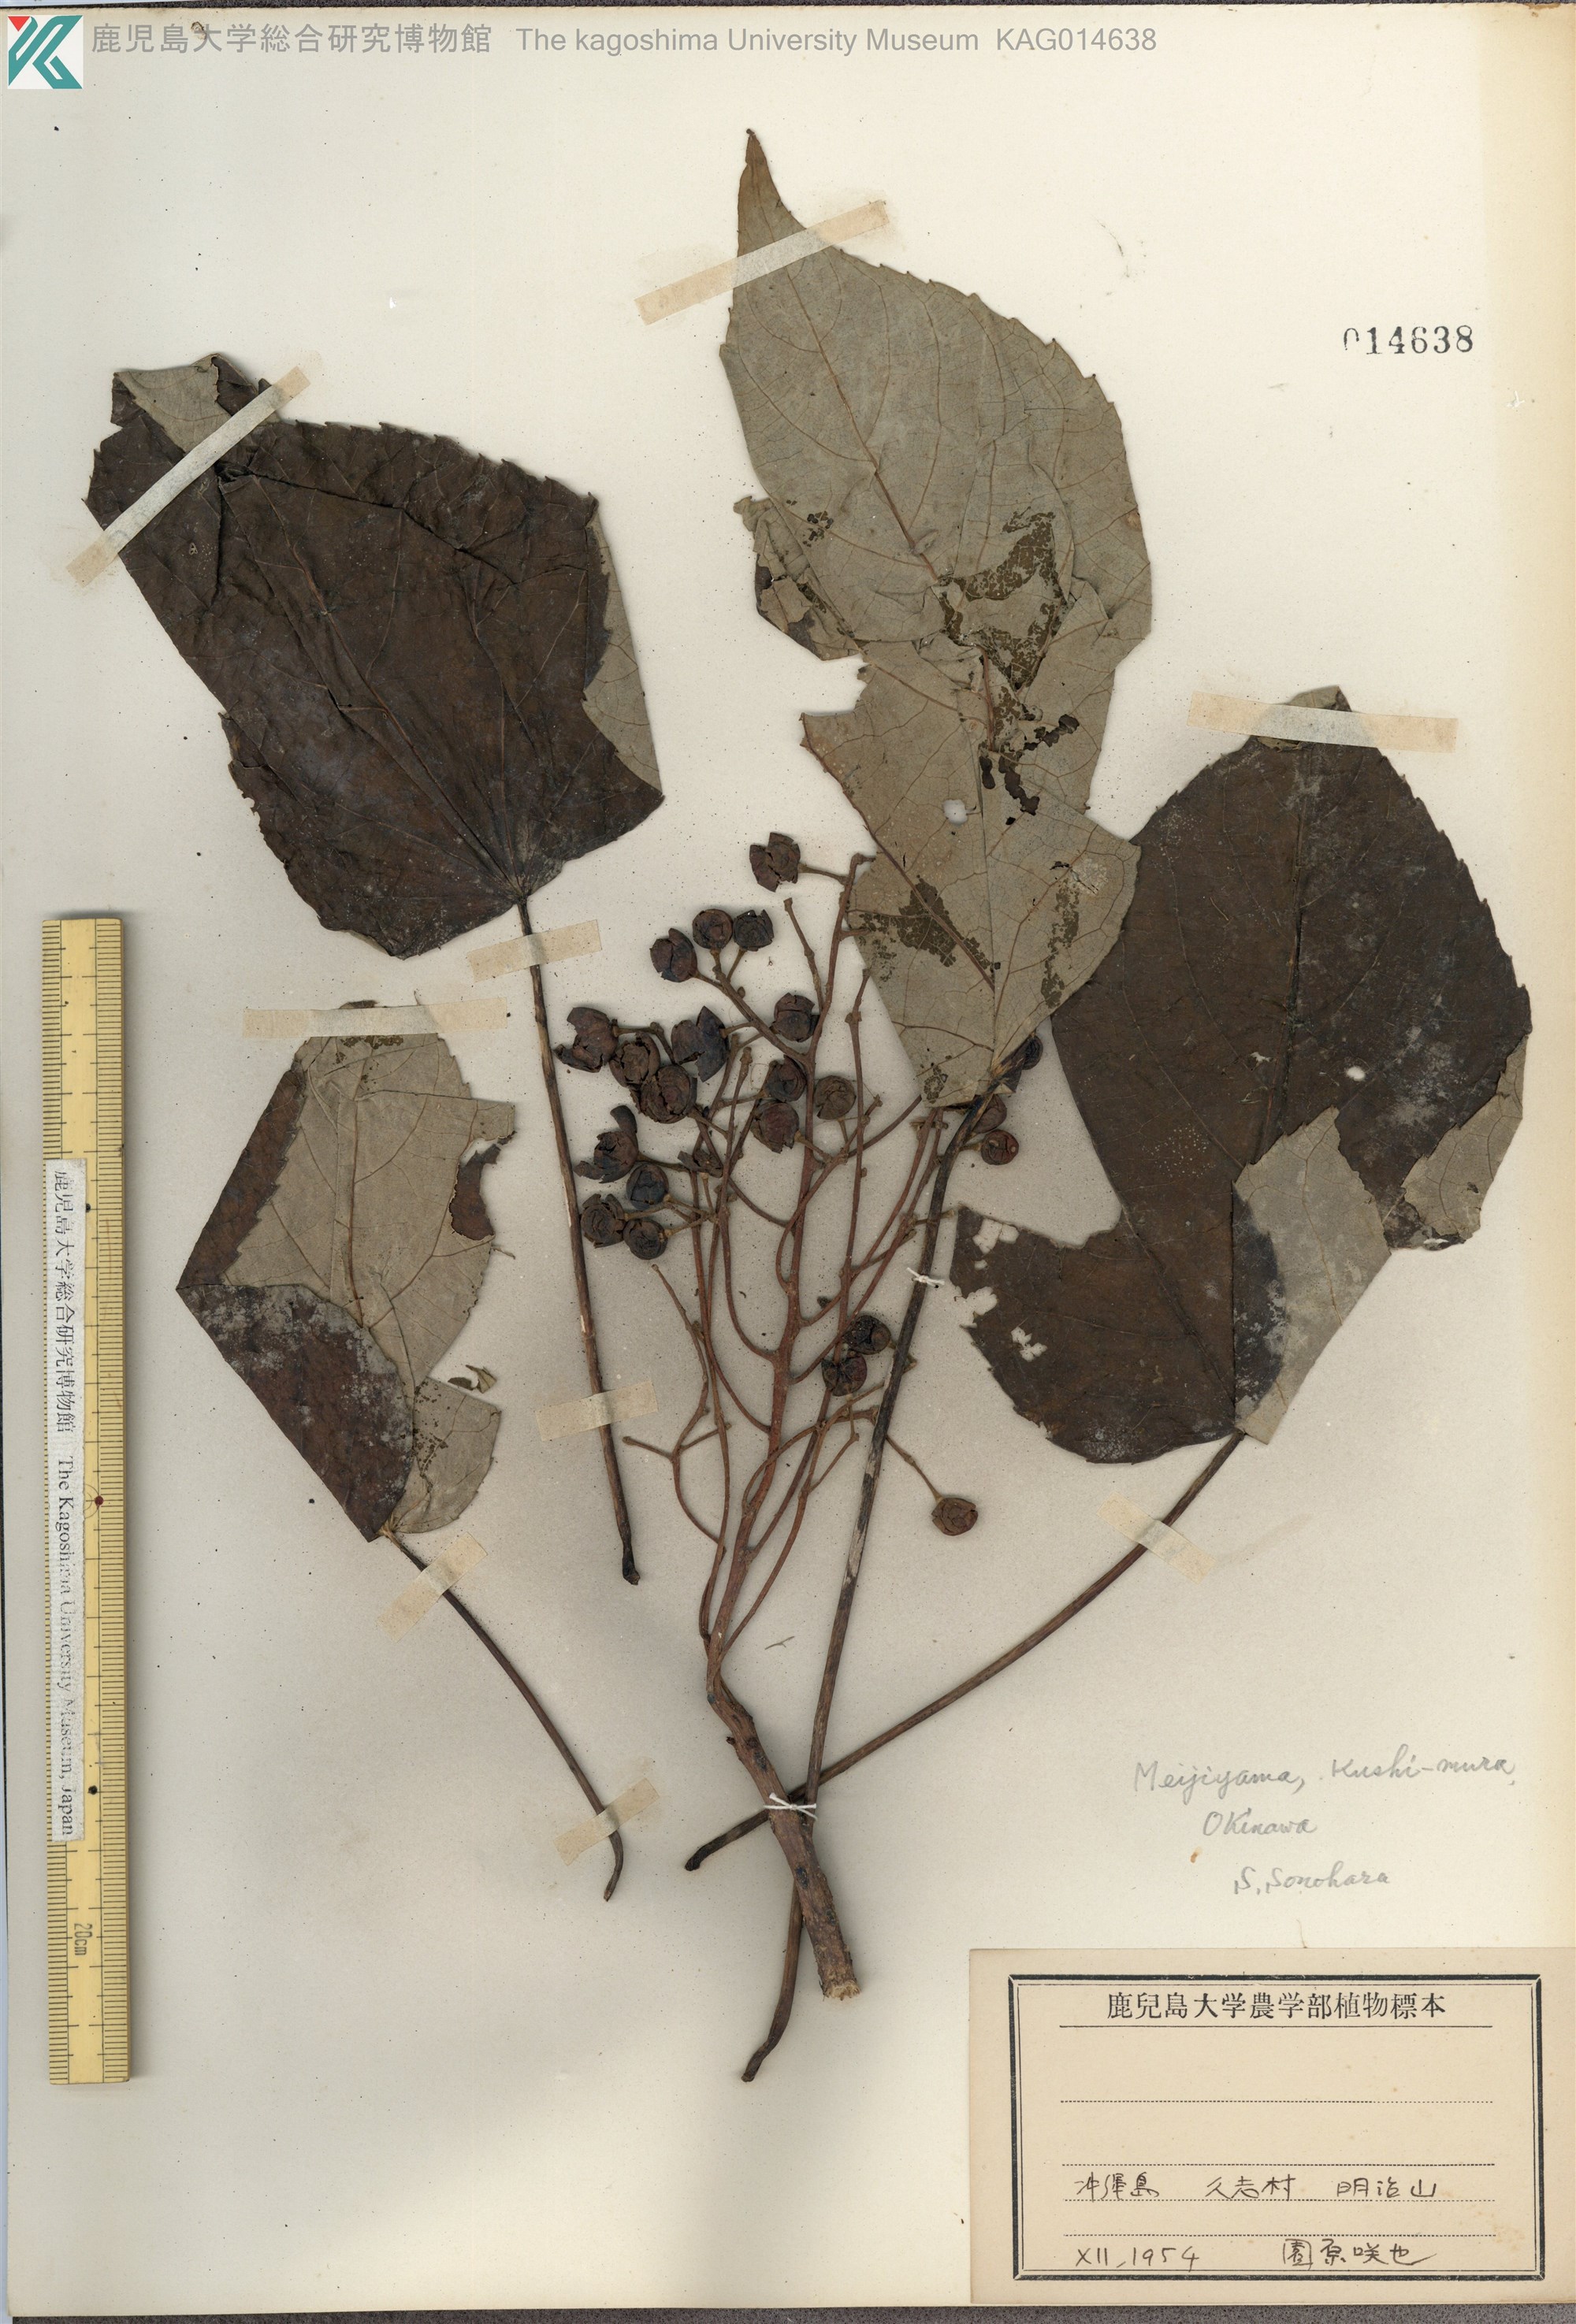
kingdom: Plantae
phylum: Tracheophyta
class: Magnoliopsida
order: Malpighiales
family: Salicaceae
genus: Idesia
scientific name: Idesia polycarpa
